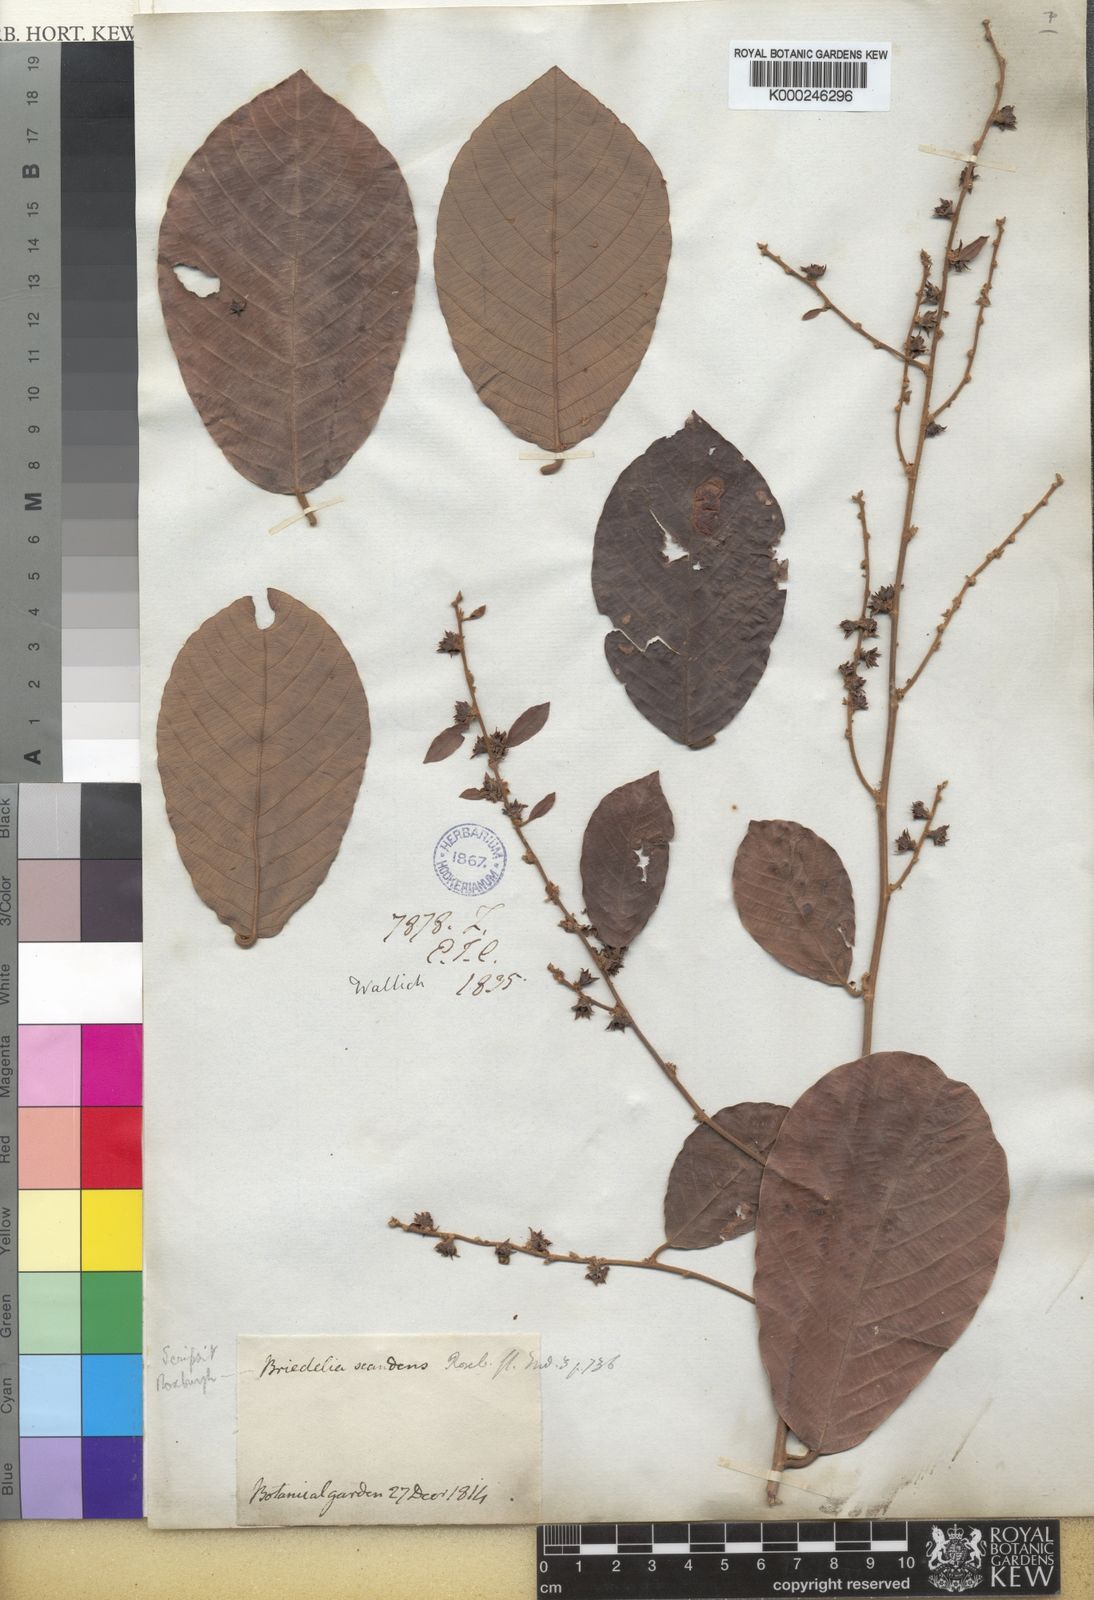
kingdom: Plantae
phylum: Tracheophyta
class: Magnoliopsida
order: Malpighiales
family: Phyllanthaceae
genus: Bridelia
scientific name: Bridelia stipularis
